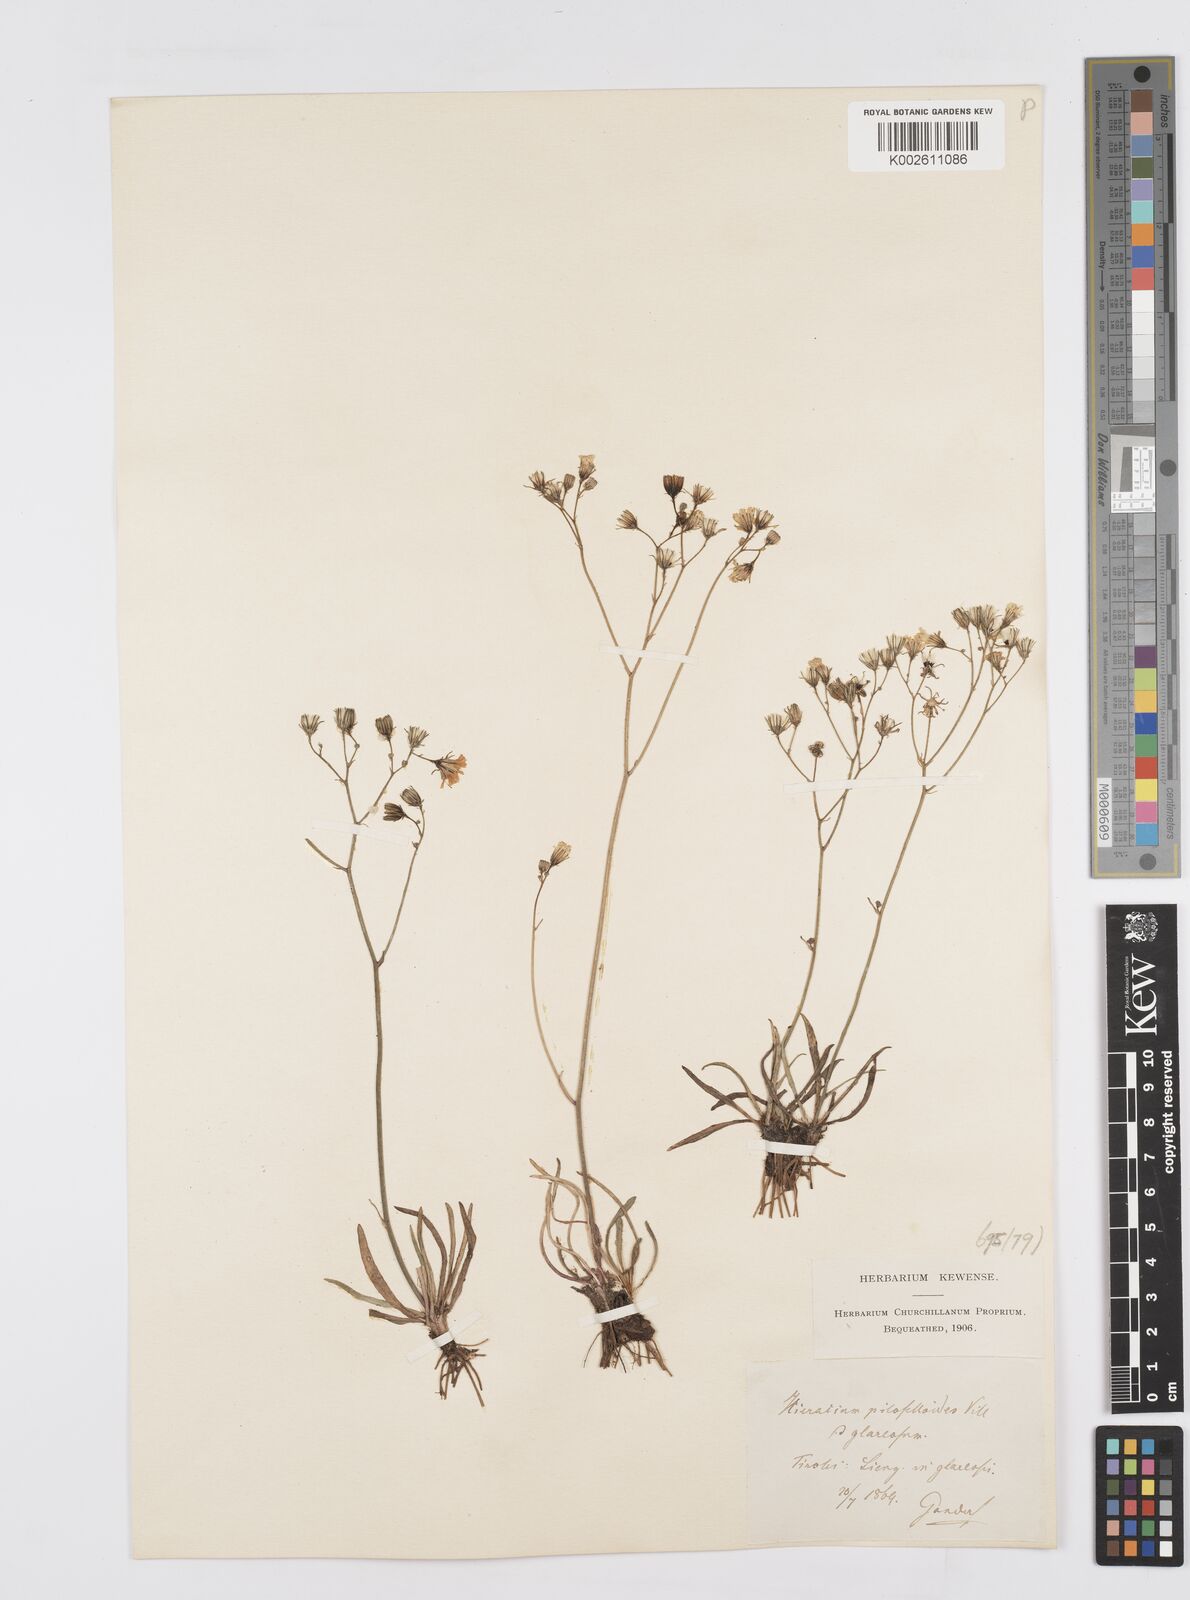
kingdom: Plantae
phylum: Tracheophyta
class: Magnoliopsida
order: Asterales
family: Asteraceae
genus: Pilosella
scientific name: Pilosella piloselloides
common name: Glaucous king-devil
